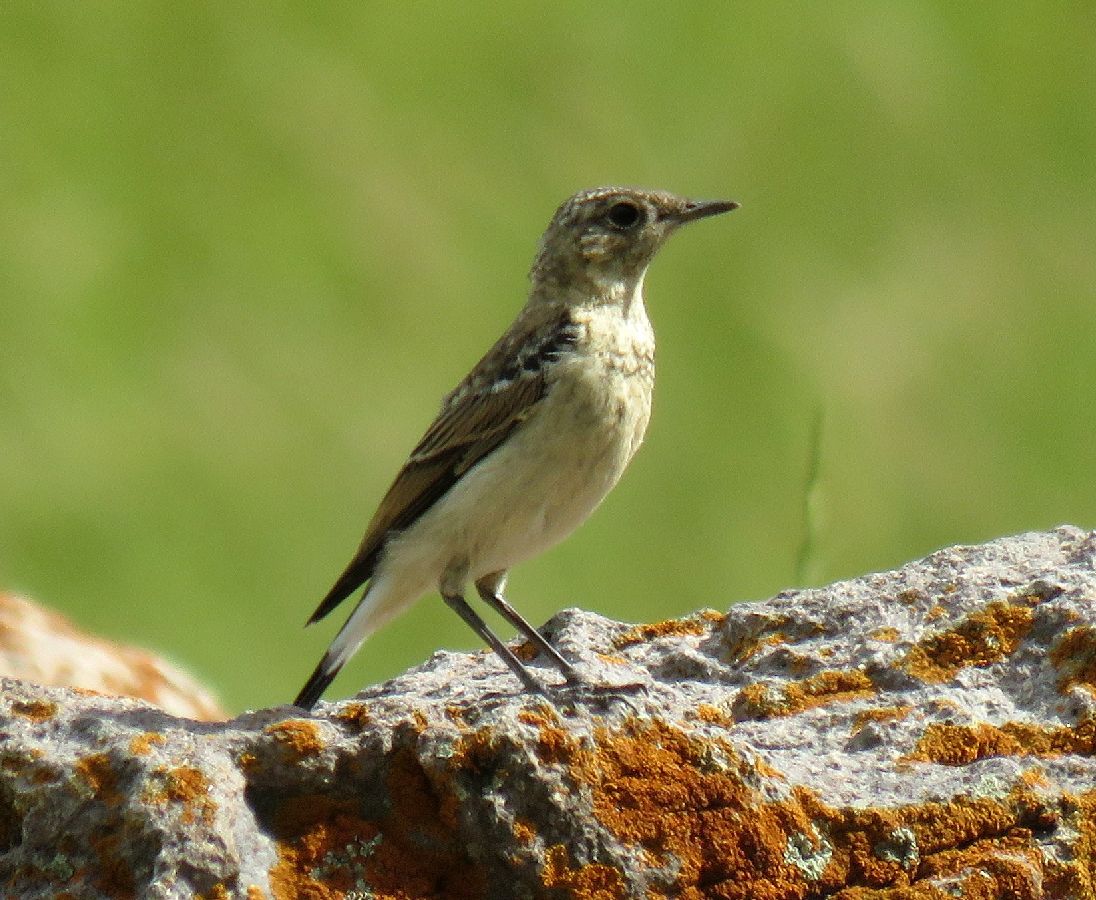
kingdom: Animalia
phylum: Chordata
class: Aves
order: Passeriformes
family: Muscicapidae
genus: Oenanthe
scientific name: Oenanthe oenanthe
